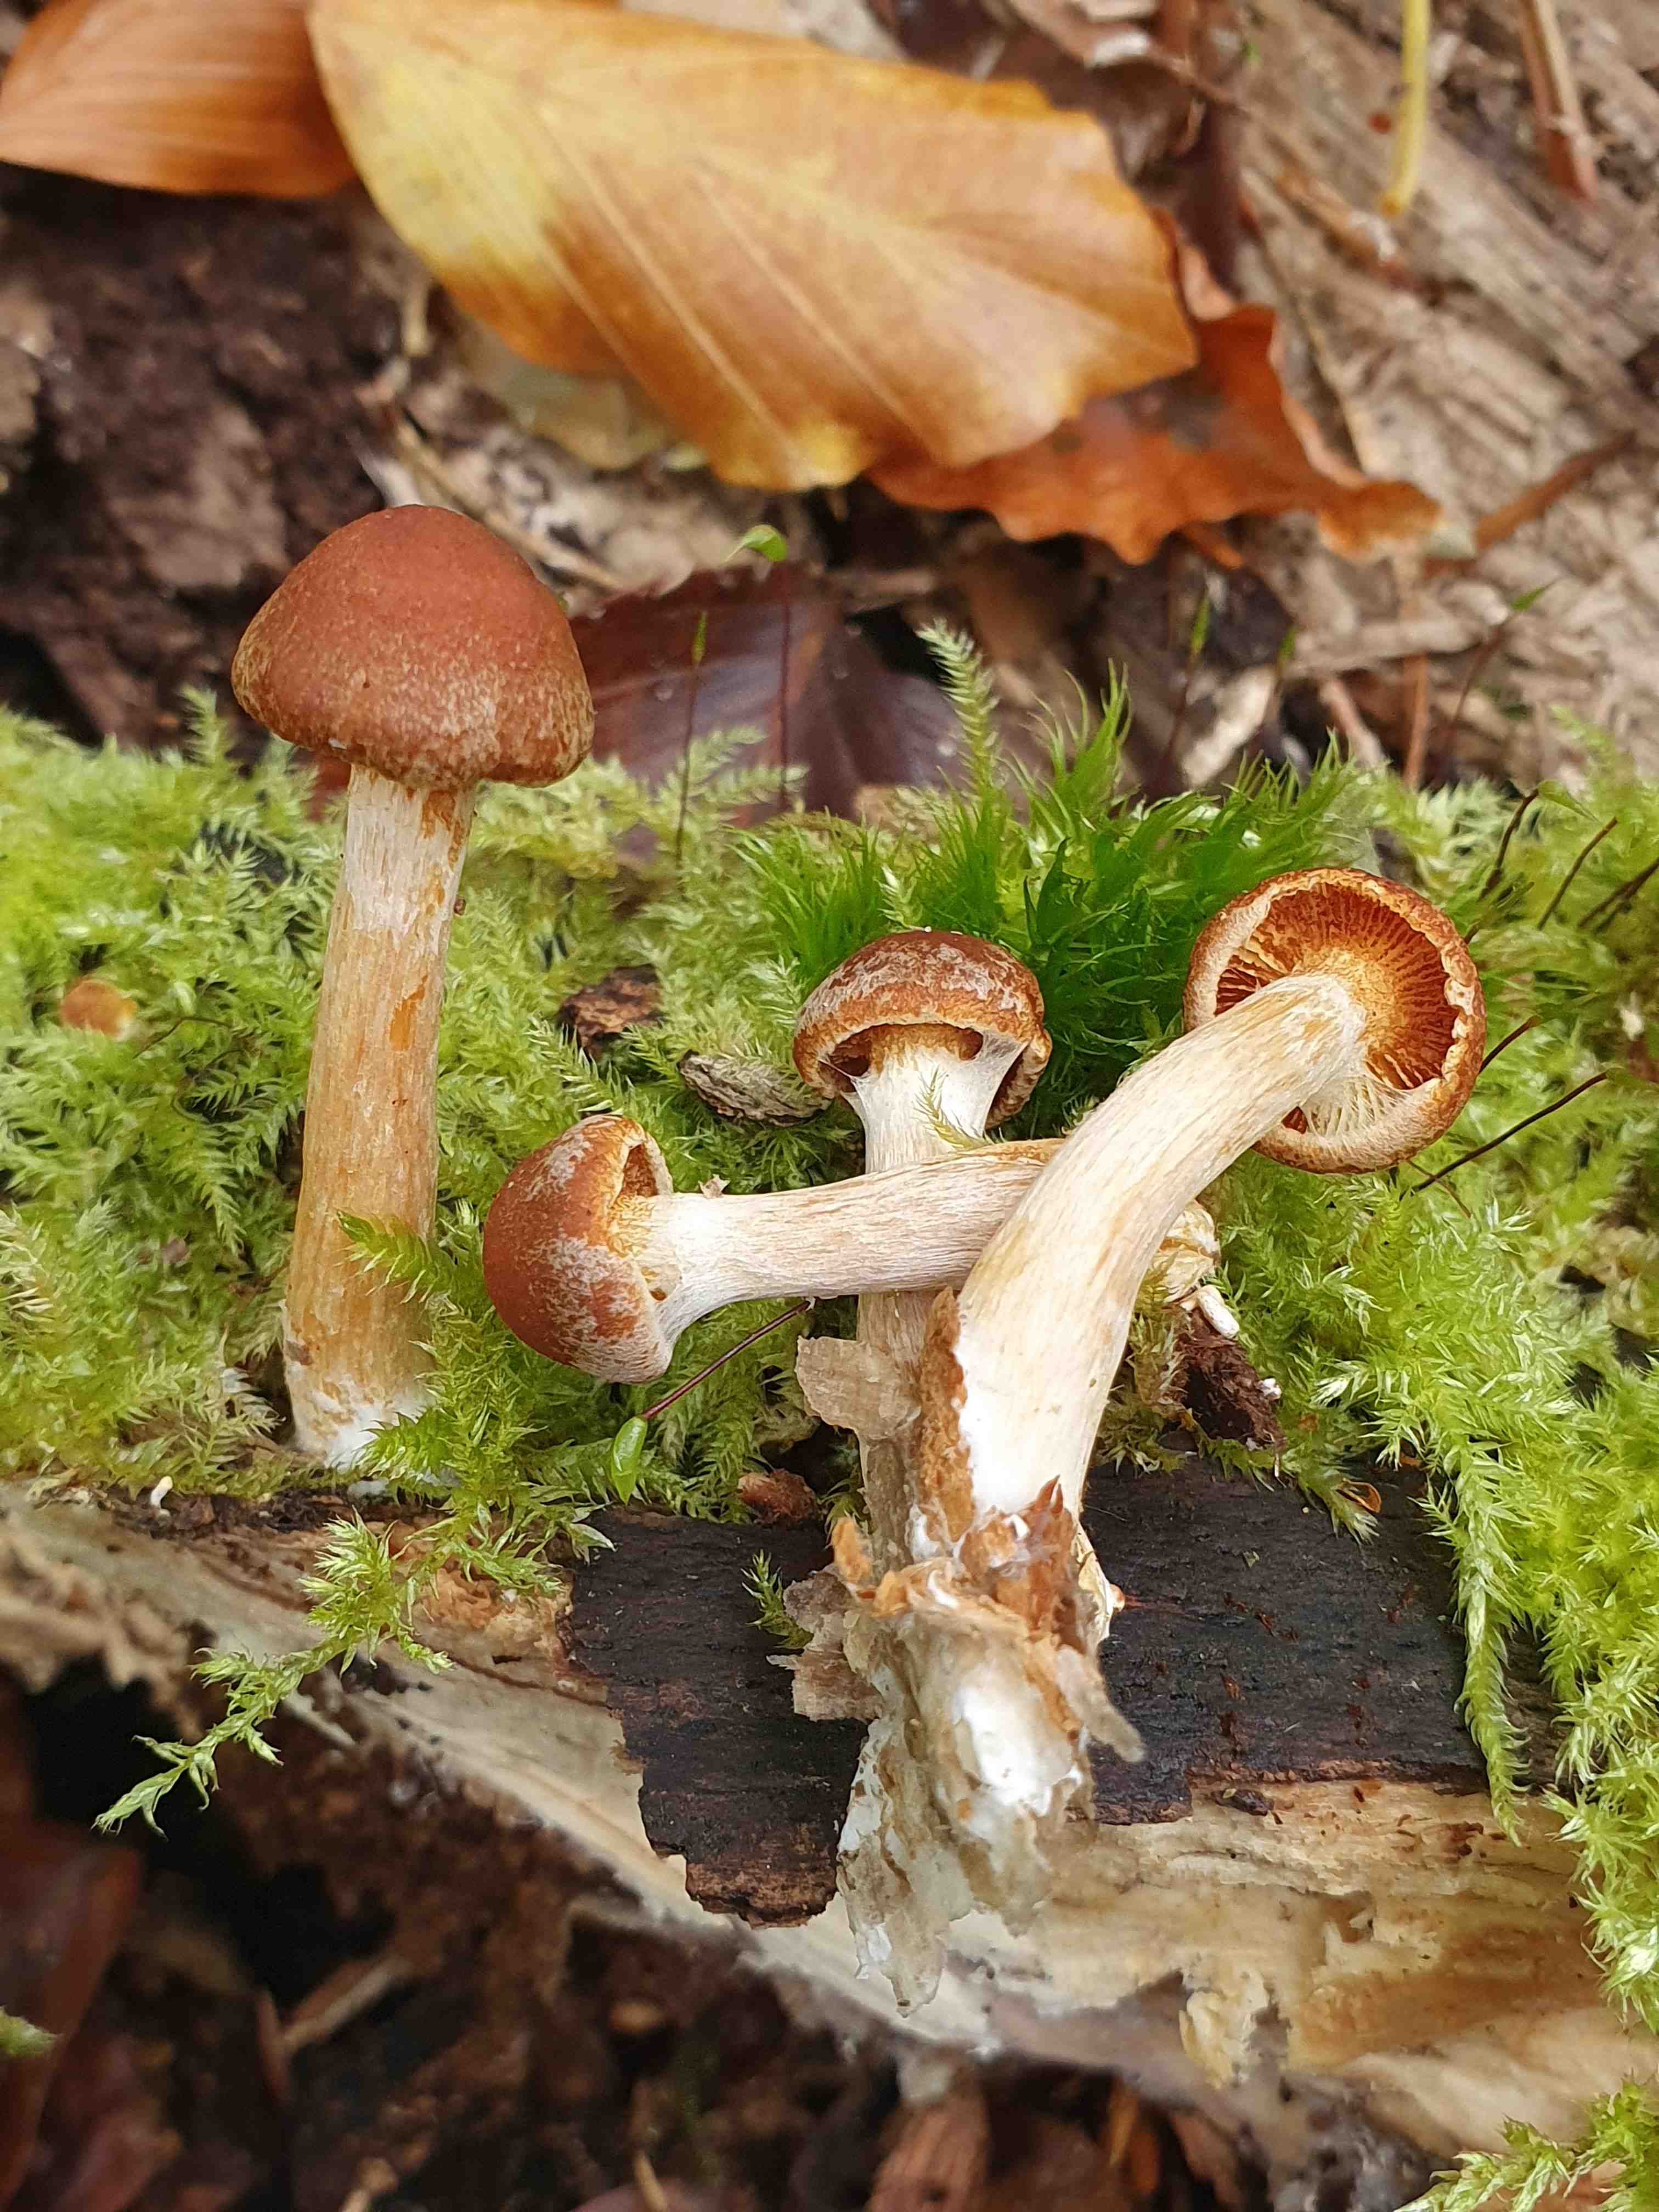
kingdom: Fungi
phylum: Basidiomycota
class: Agaricomycetes
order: Agaricales
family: Hymenogastraceae
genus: Gymnopilus
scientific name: Gymnopilus penetrans
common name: plettet flammehat
